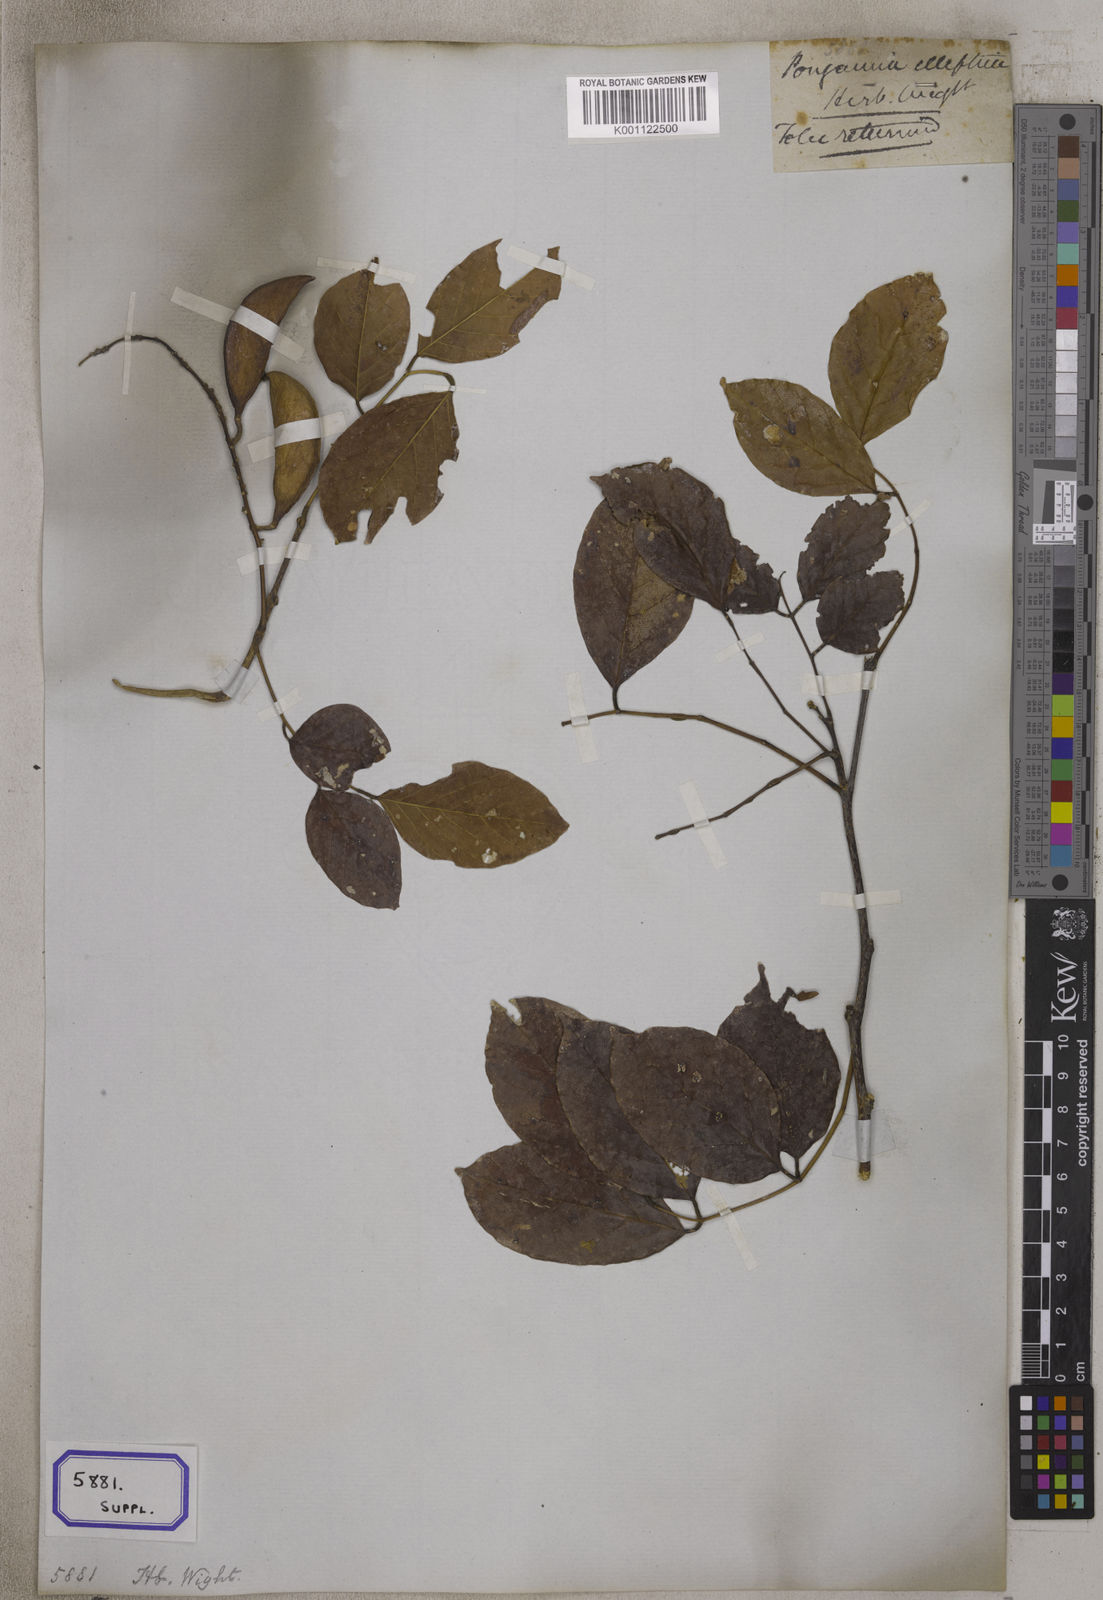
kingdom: Plantae
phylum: Tracheophyta
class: Magnoliopsida
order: Fabales
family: Fabaceae
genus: Pongamia
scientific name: Pongamia
